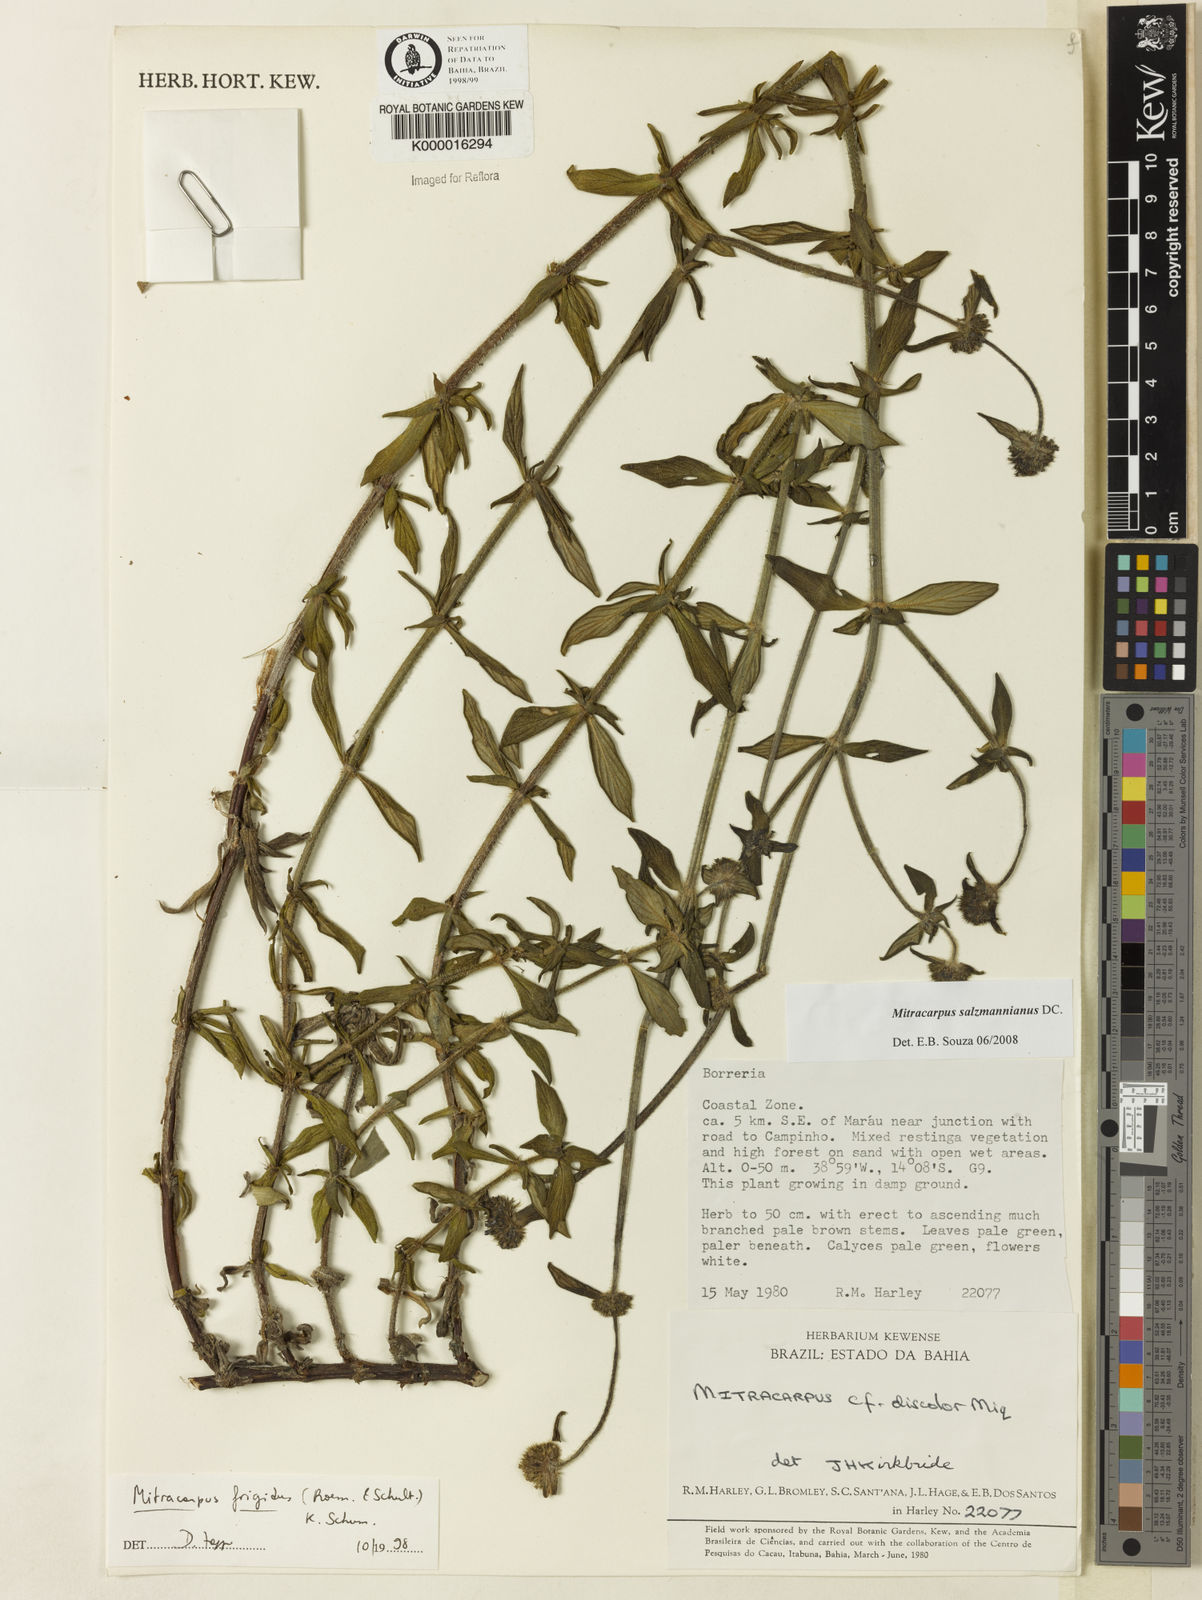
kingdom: Plantae
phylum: Tracheophyta
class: Magnoliopsida
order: Gentianales
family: Rubiaceae
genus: Mitracarpus
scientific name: Mitracarpus salzmannianus
